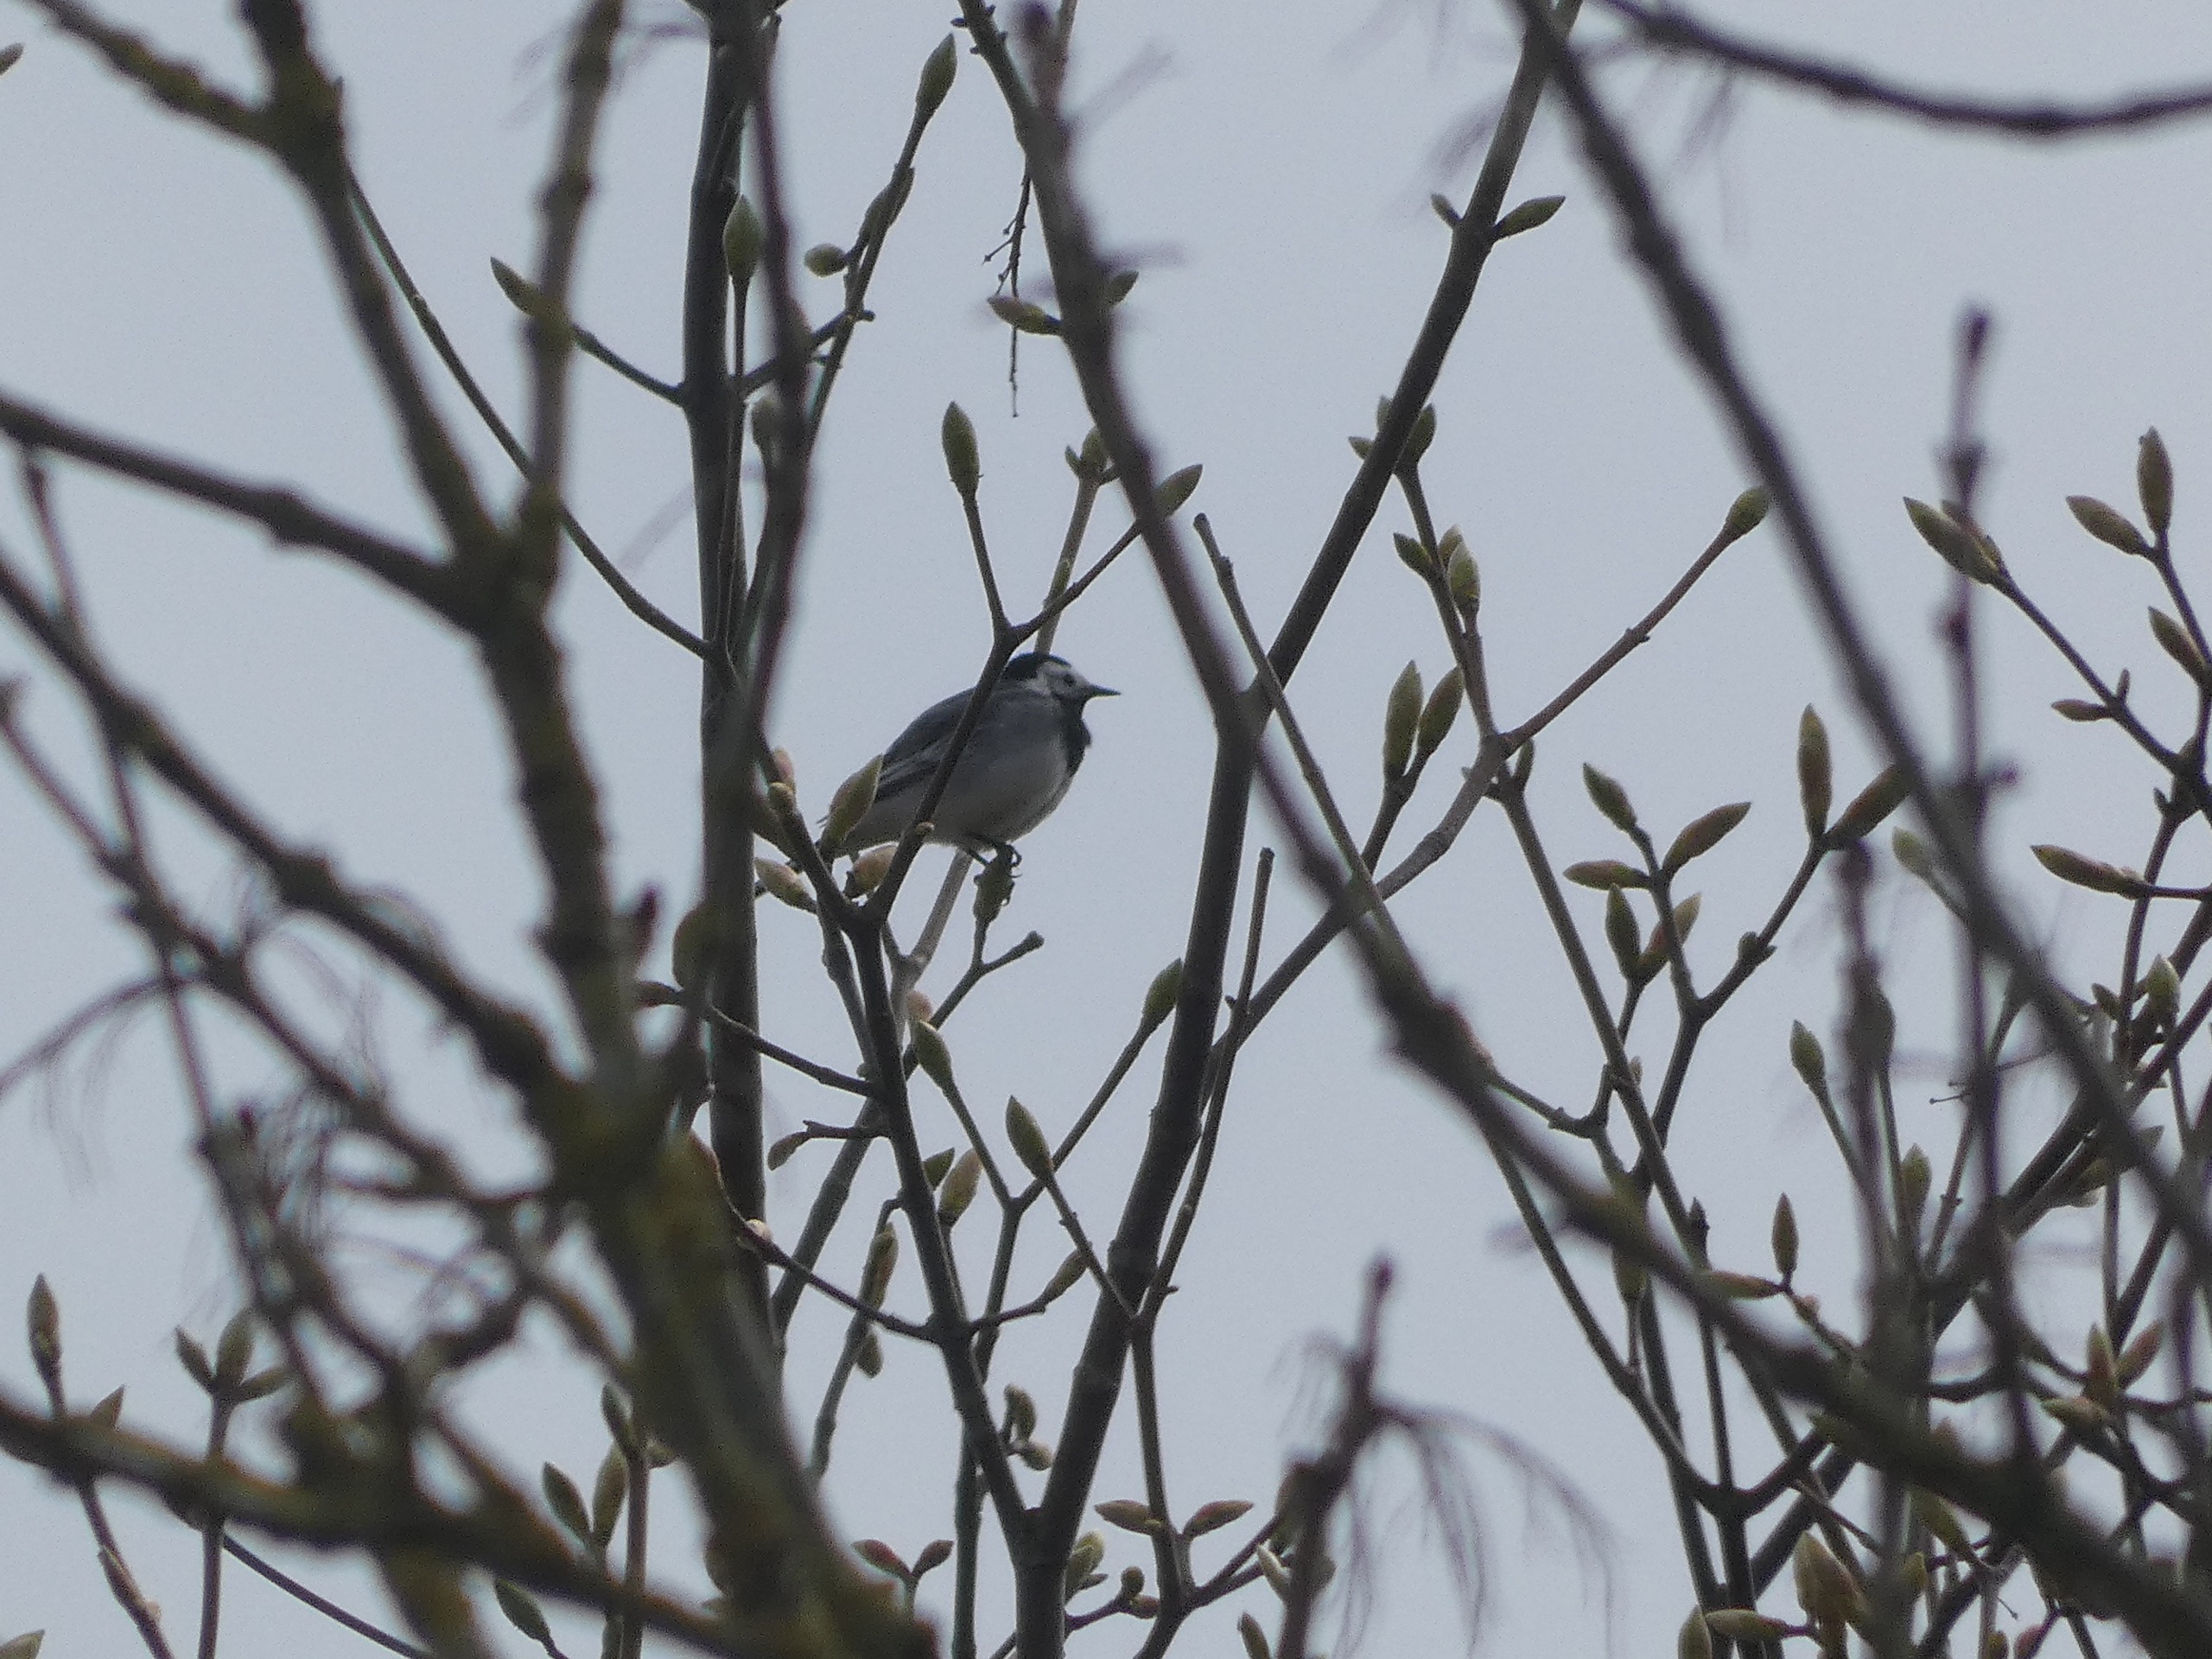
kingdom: Animalia
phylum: Chordata
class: Aves
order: Passeriformes
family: Motacillidae
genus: Motacilla
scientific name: Motacilla alba
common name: Hvid vipstjert
